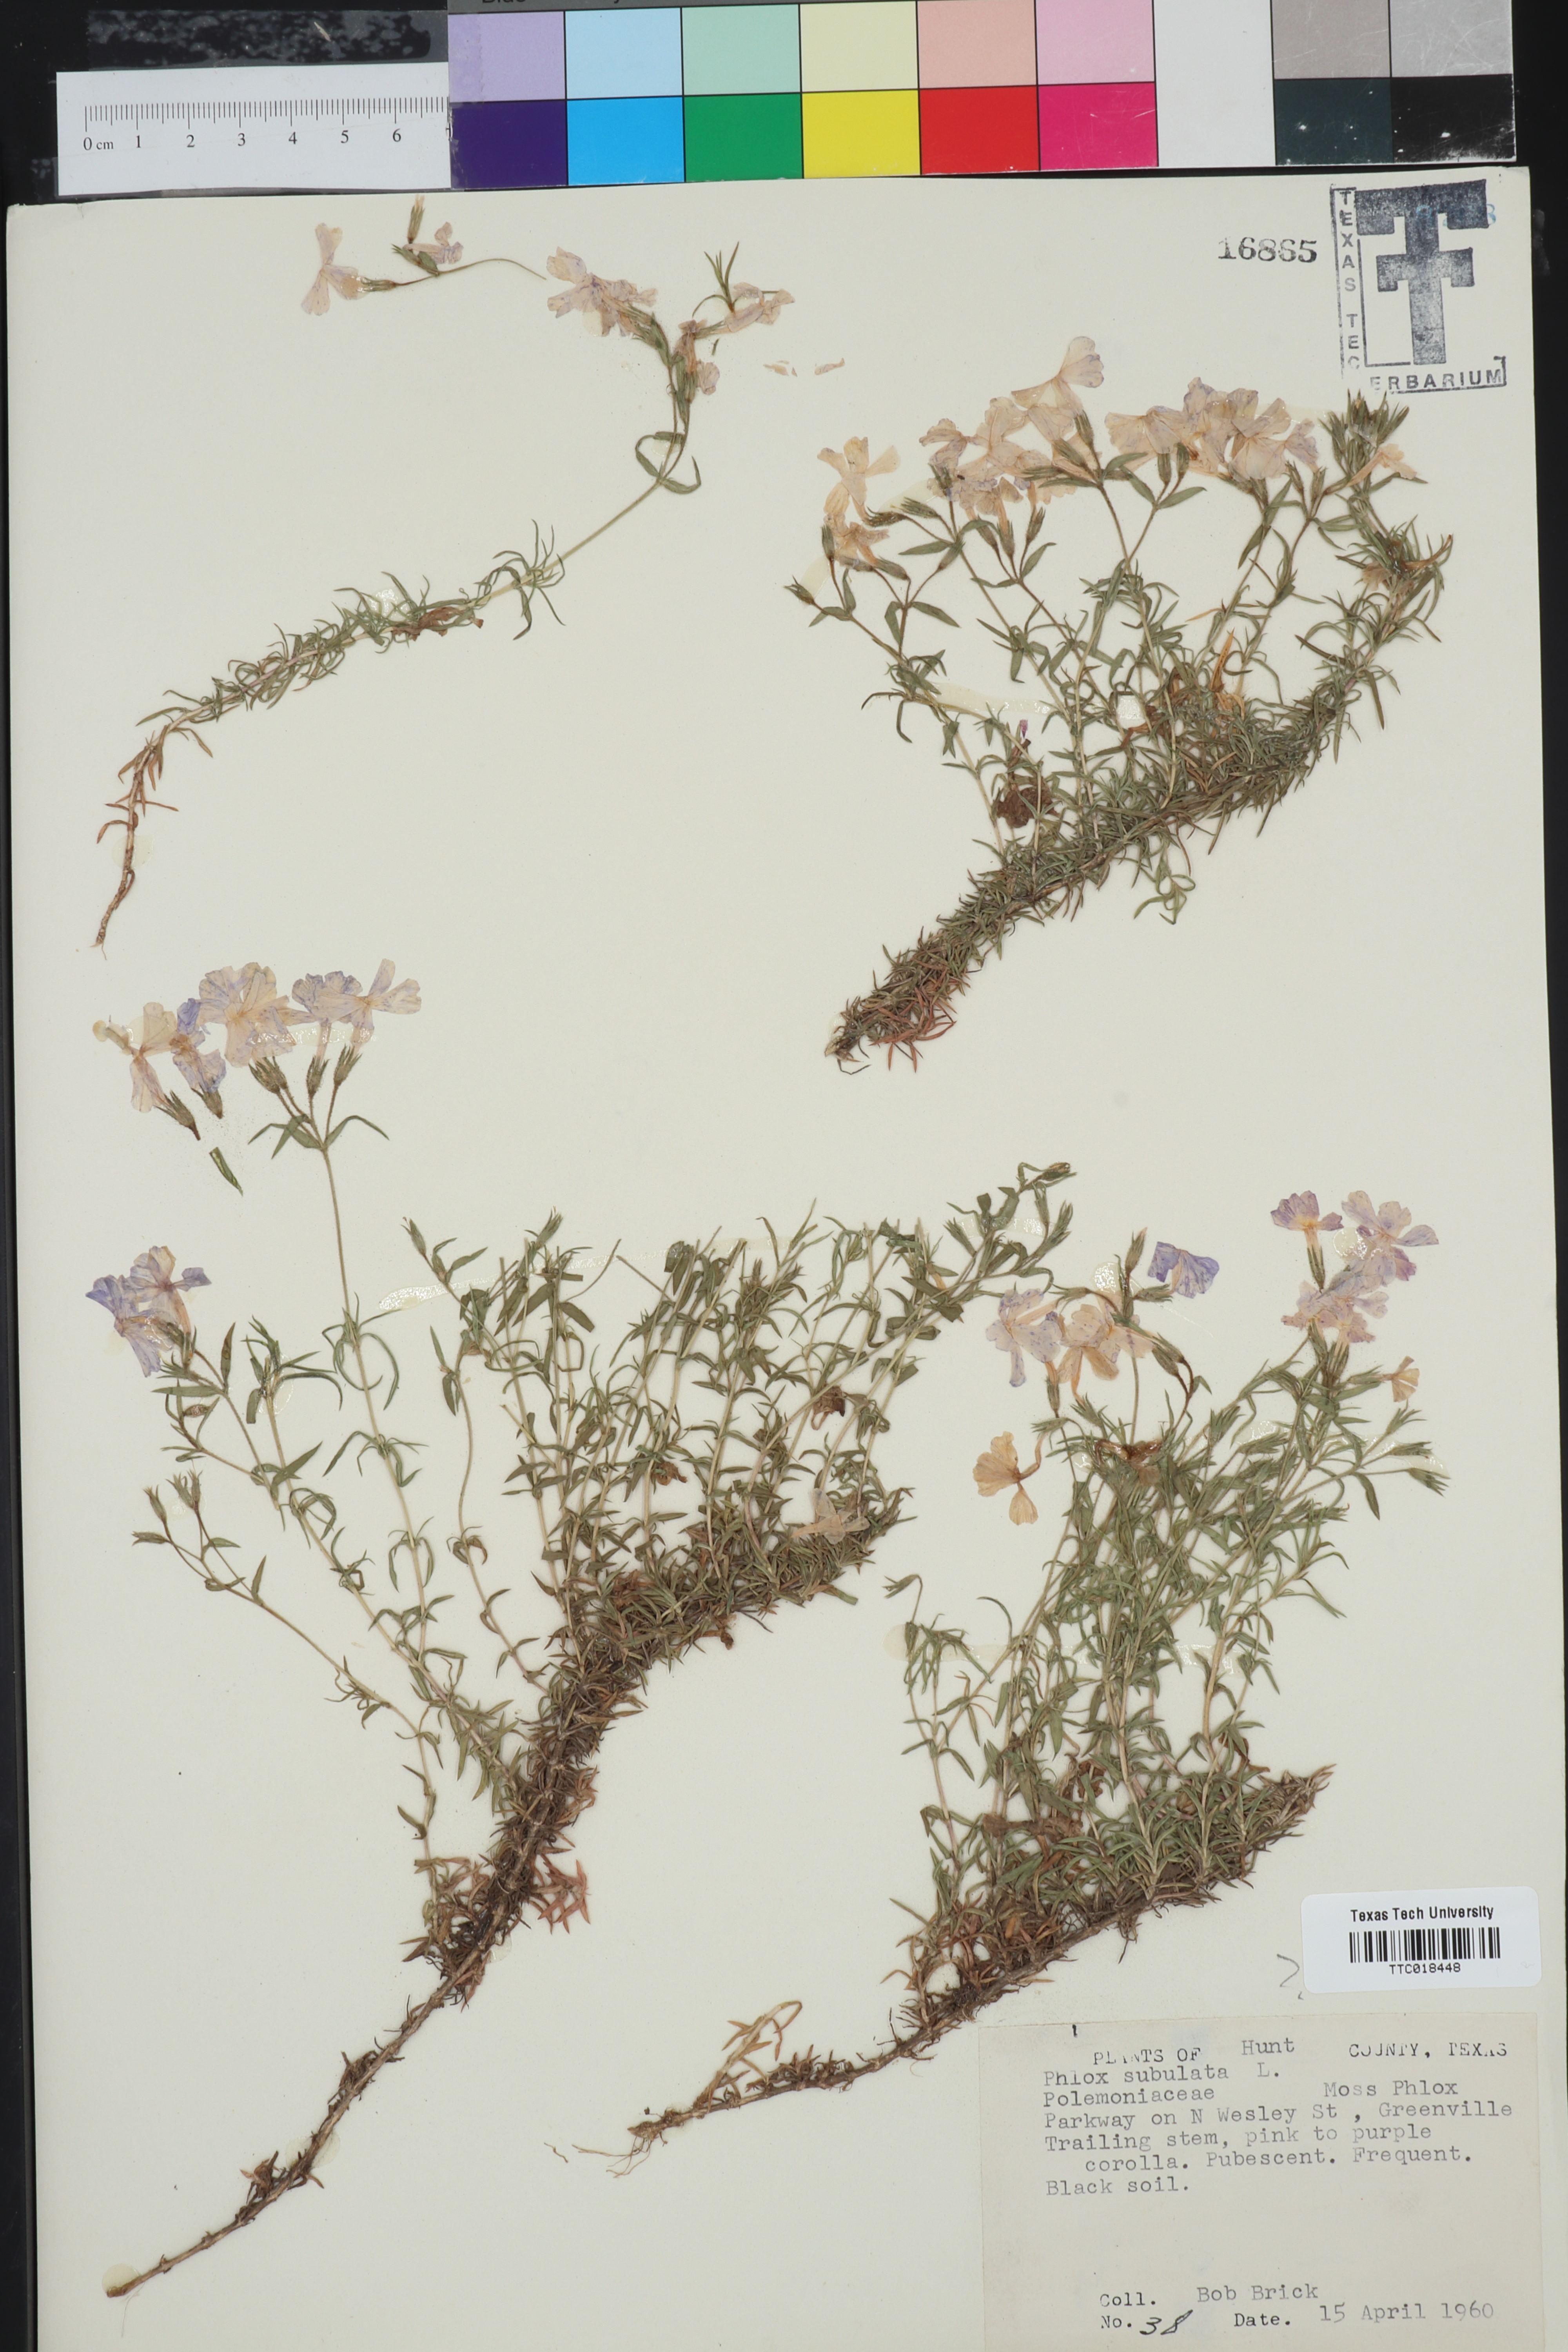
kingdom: Plantae
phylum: Tracheophyta
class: Magnoliopsida
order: Ericales
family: Polemoniaceae
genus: Phlox
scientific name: Phlox subulata
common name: Moss phlox
